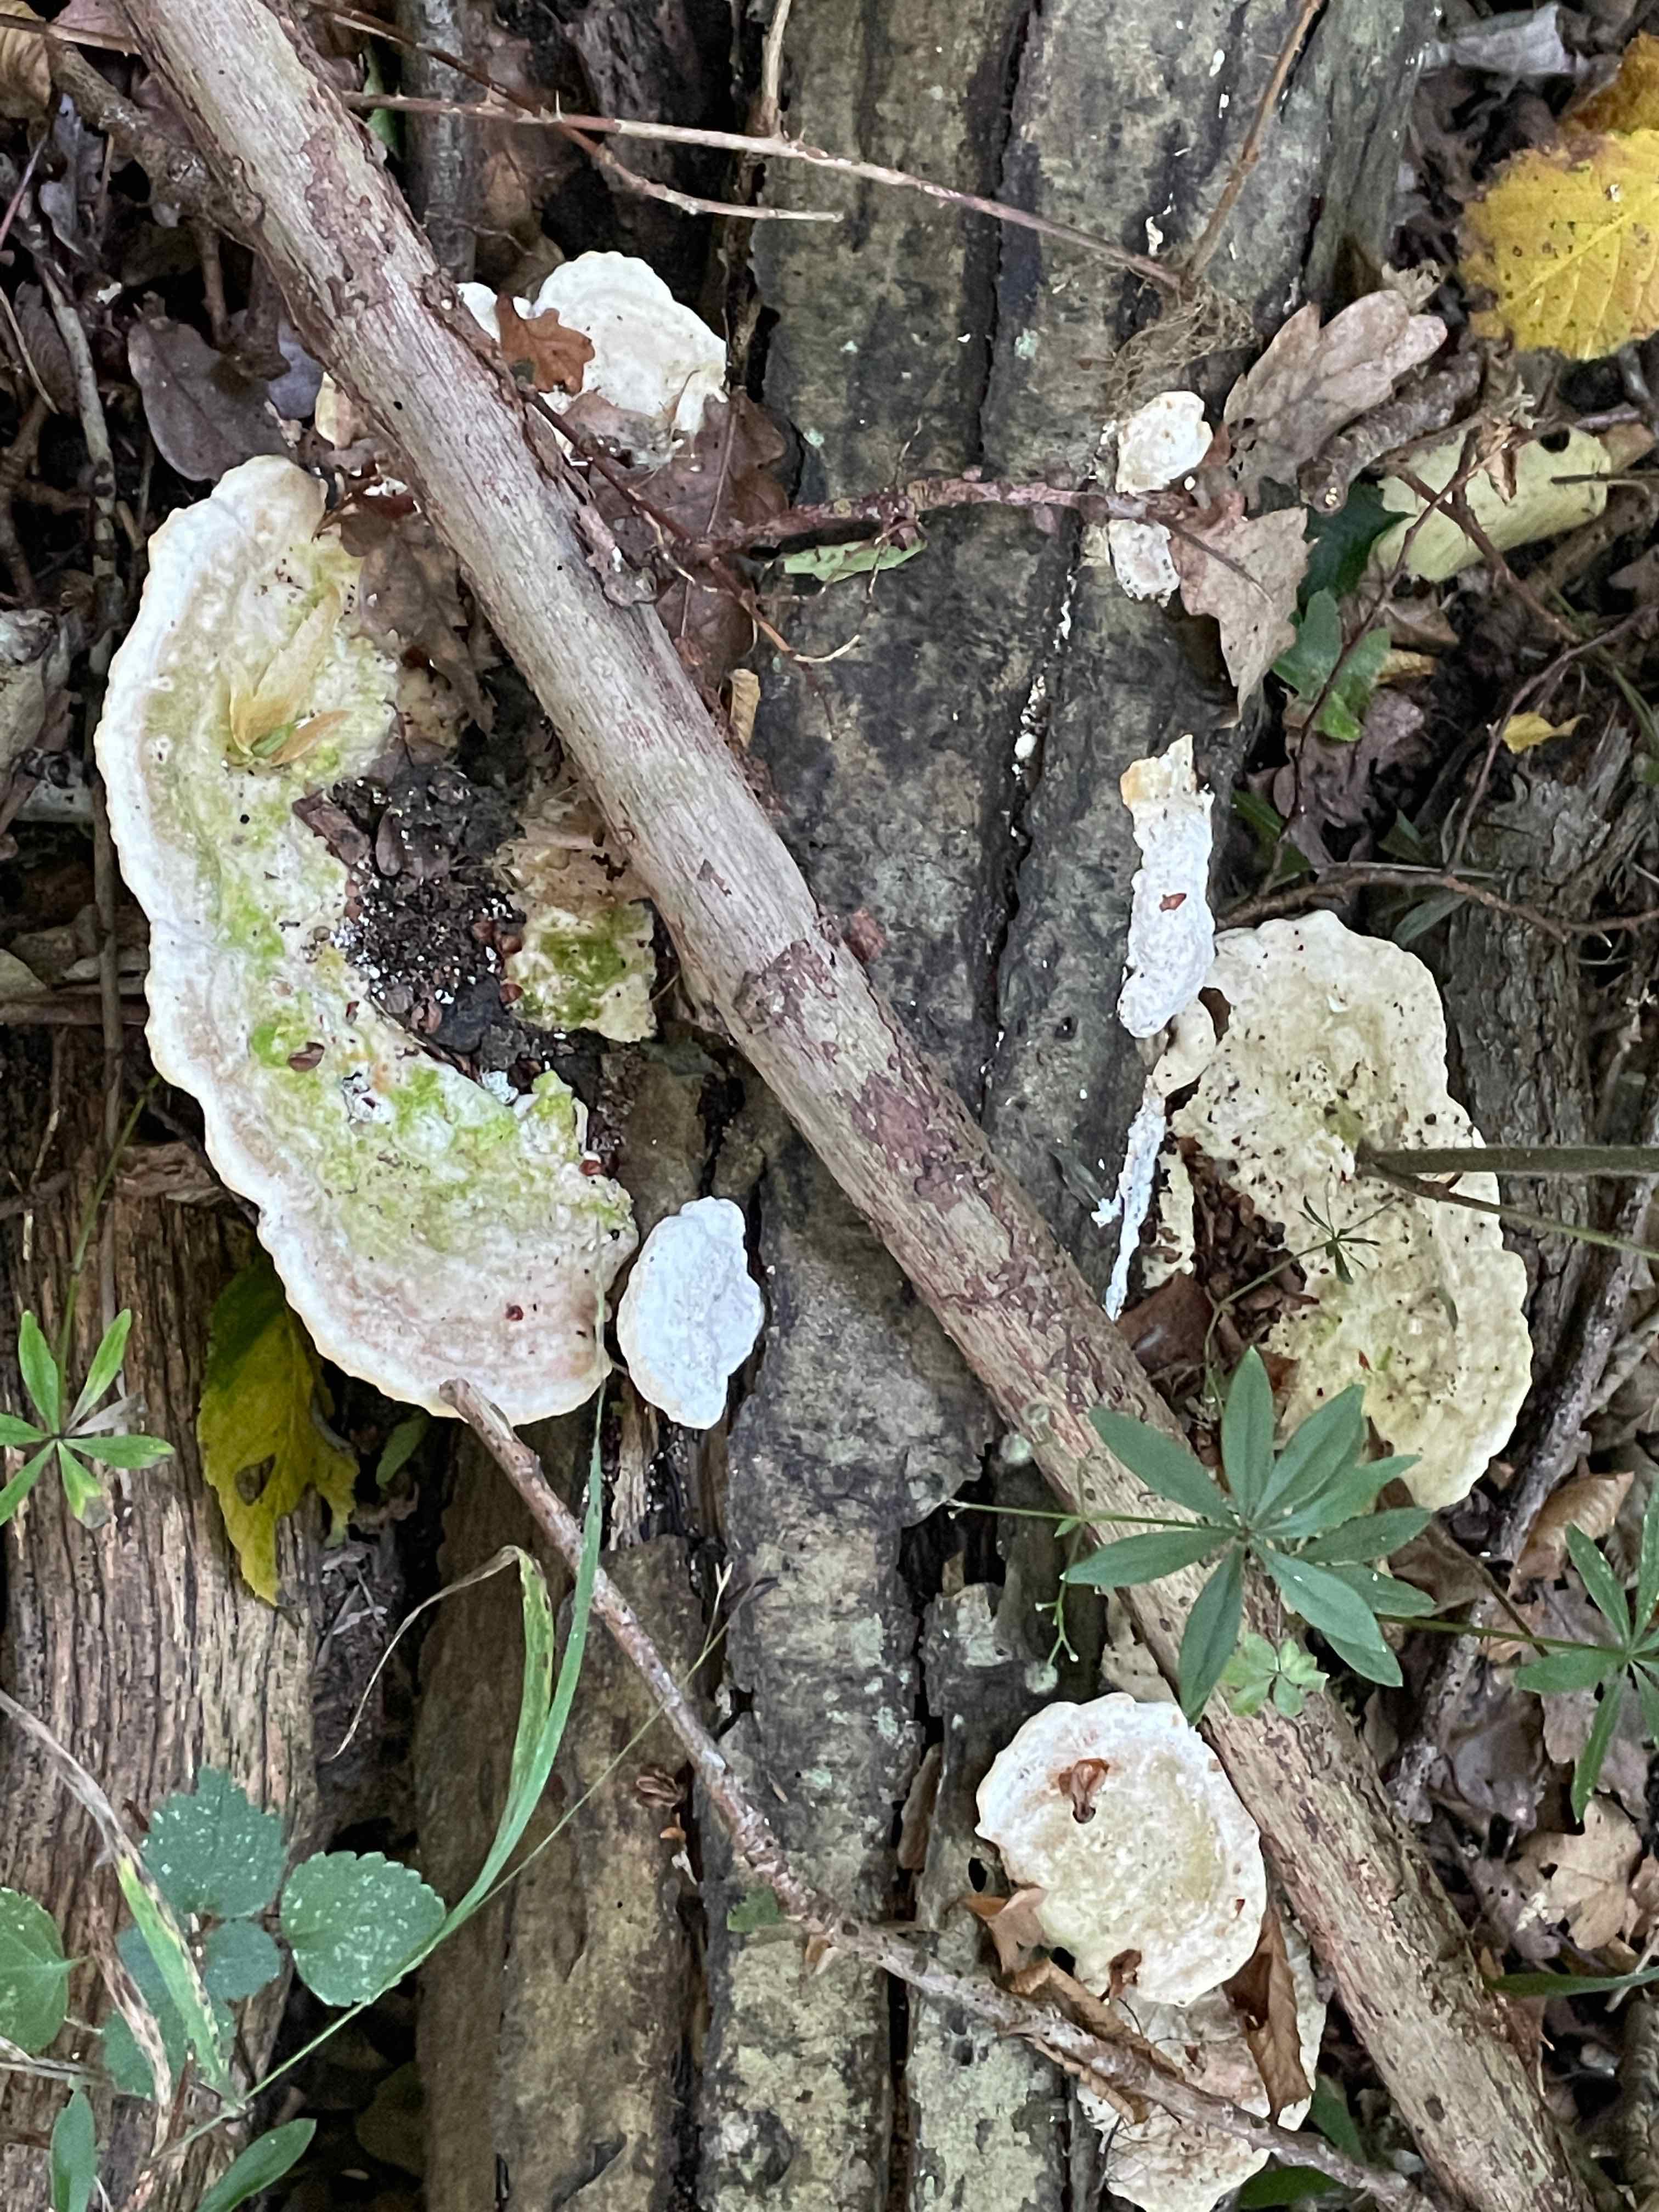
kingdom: Fungi
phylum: Basidiomycota
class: Agaricomycetes
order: Polyporales
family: Polyporaceae
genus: Trametes
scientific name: Trametes gibbosa
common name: puklet læderporesvamp
